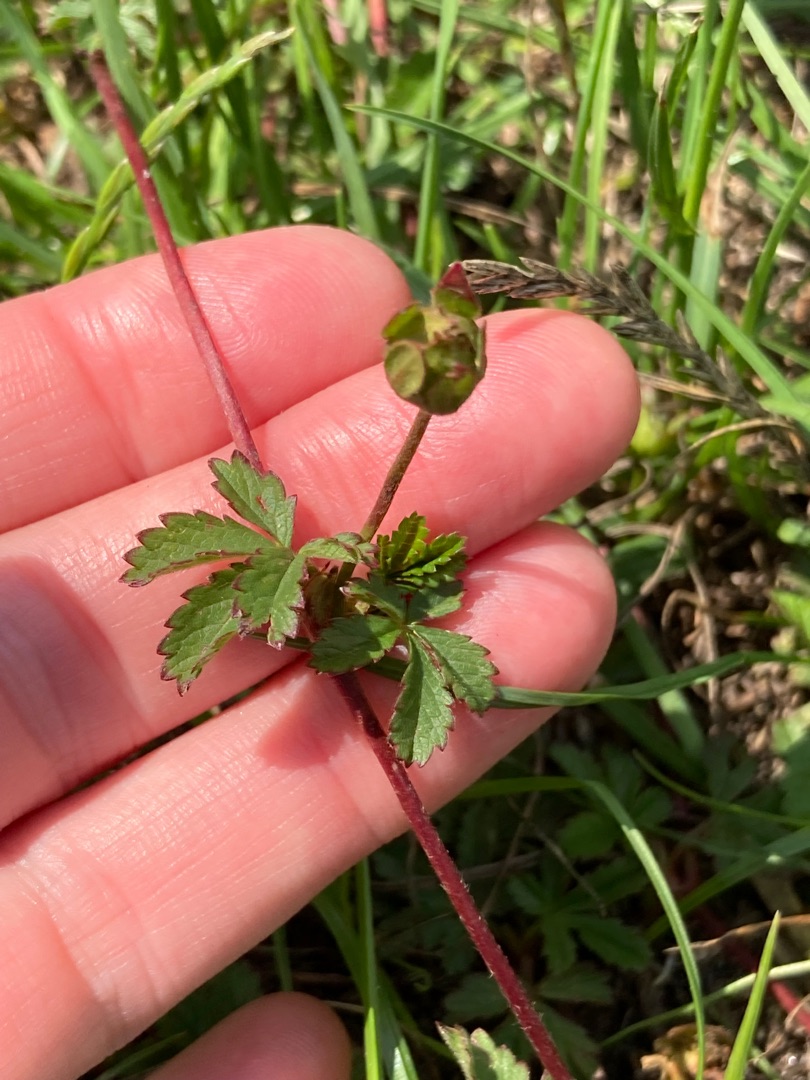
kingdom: Plantae
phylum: Tracheophyta
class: Magnoliopsida
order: Rosales
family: Rosaceae
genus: Potentilla
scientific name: Potentilla reptans
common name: Krybende potentil
